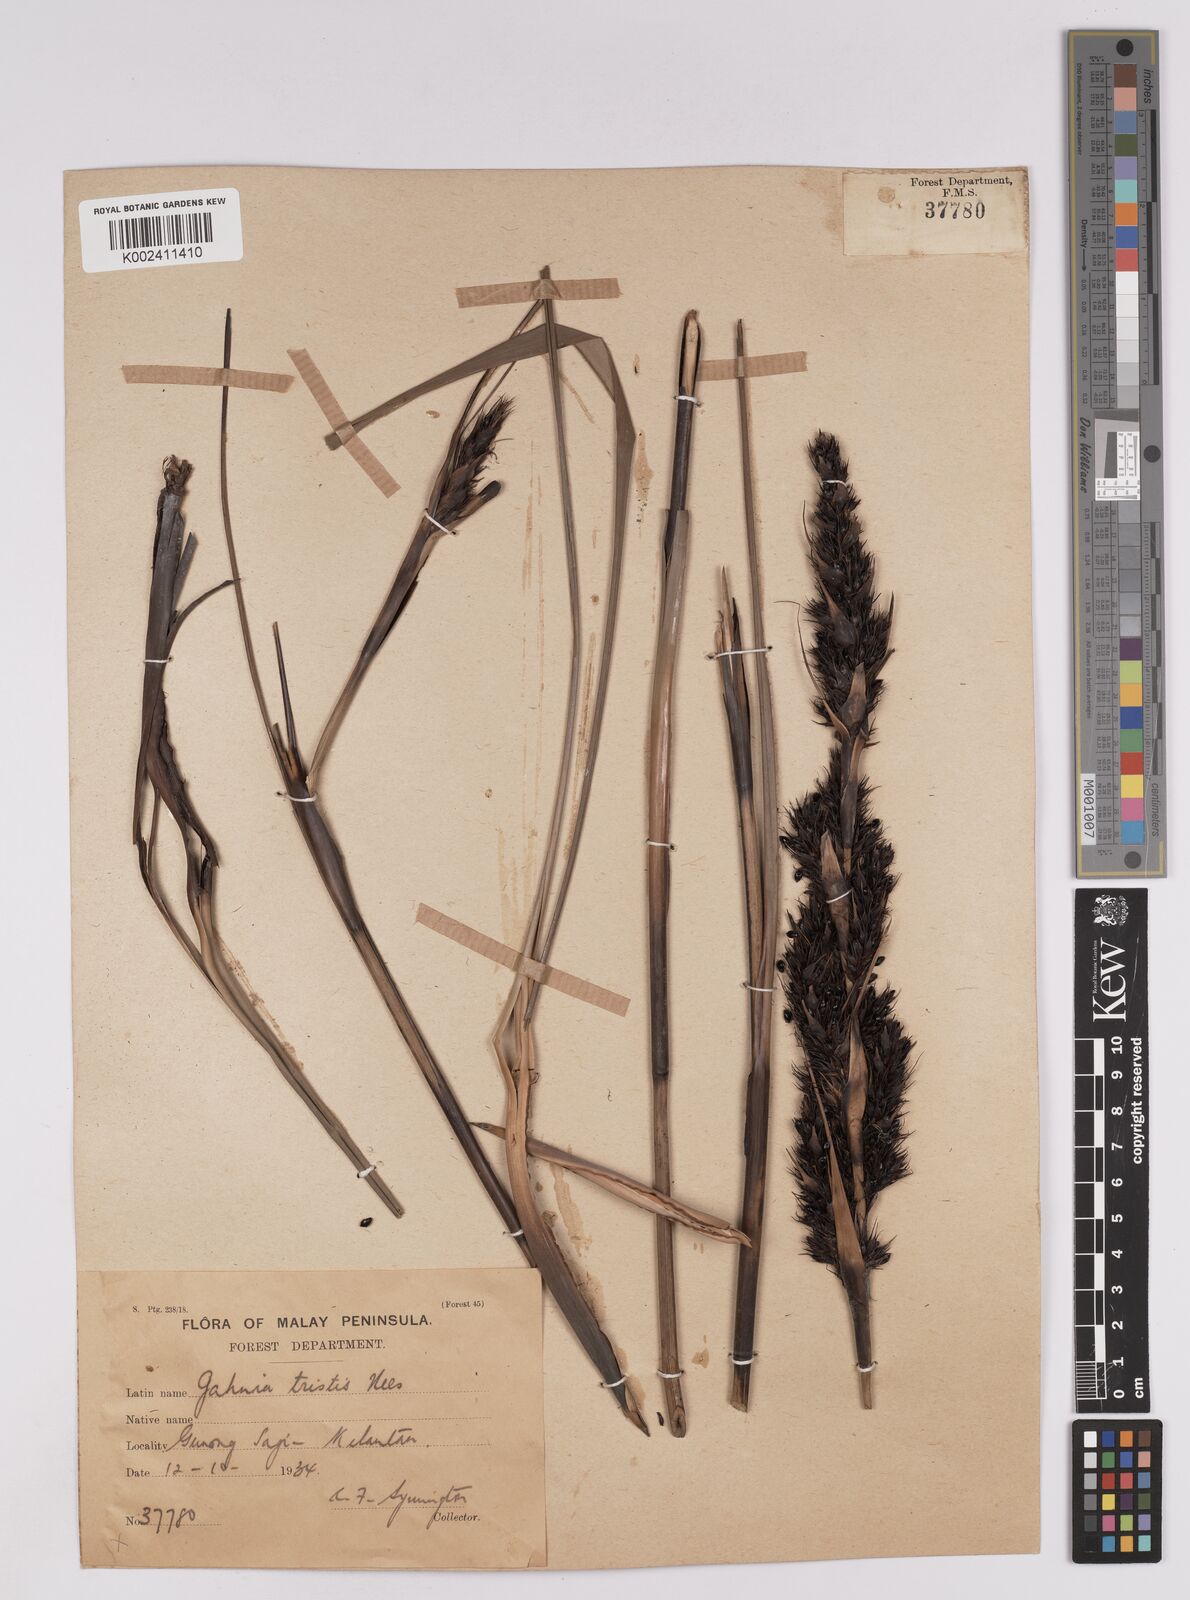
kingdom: Plantae
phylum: Tracheophyta
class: Liliopsida
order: Poales
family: Cyperaceae
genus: Gahnia
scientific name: Gahnia tristis
